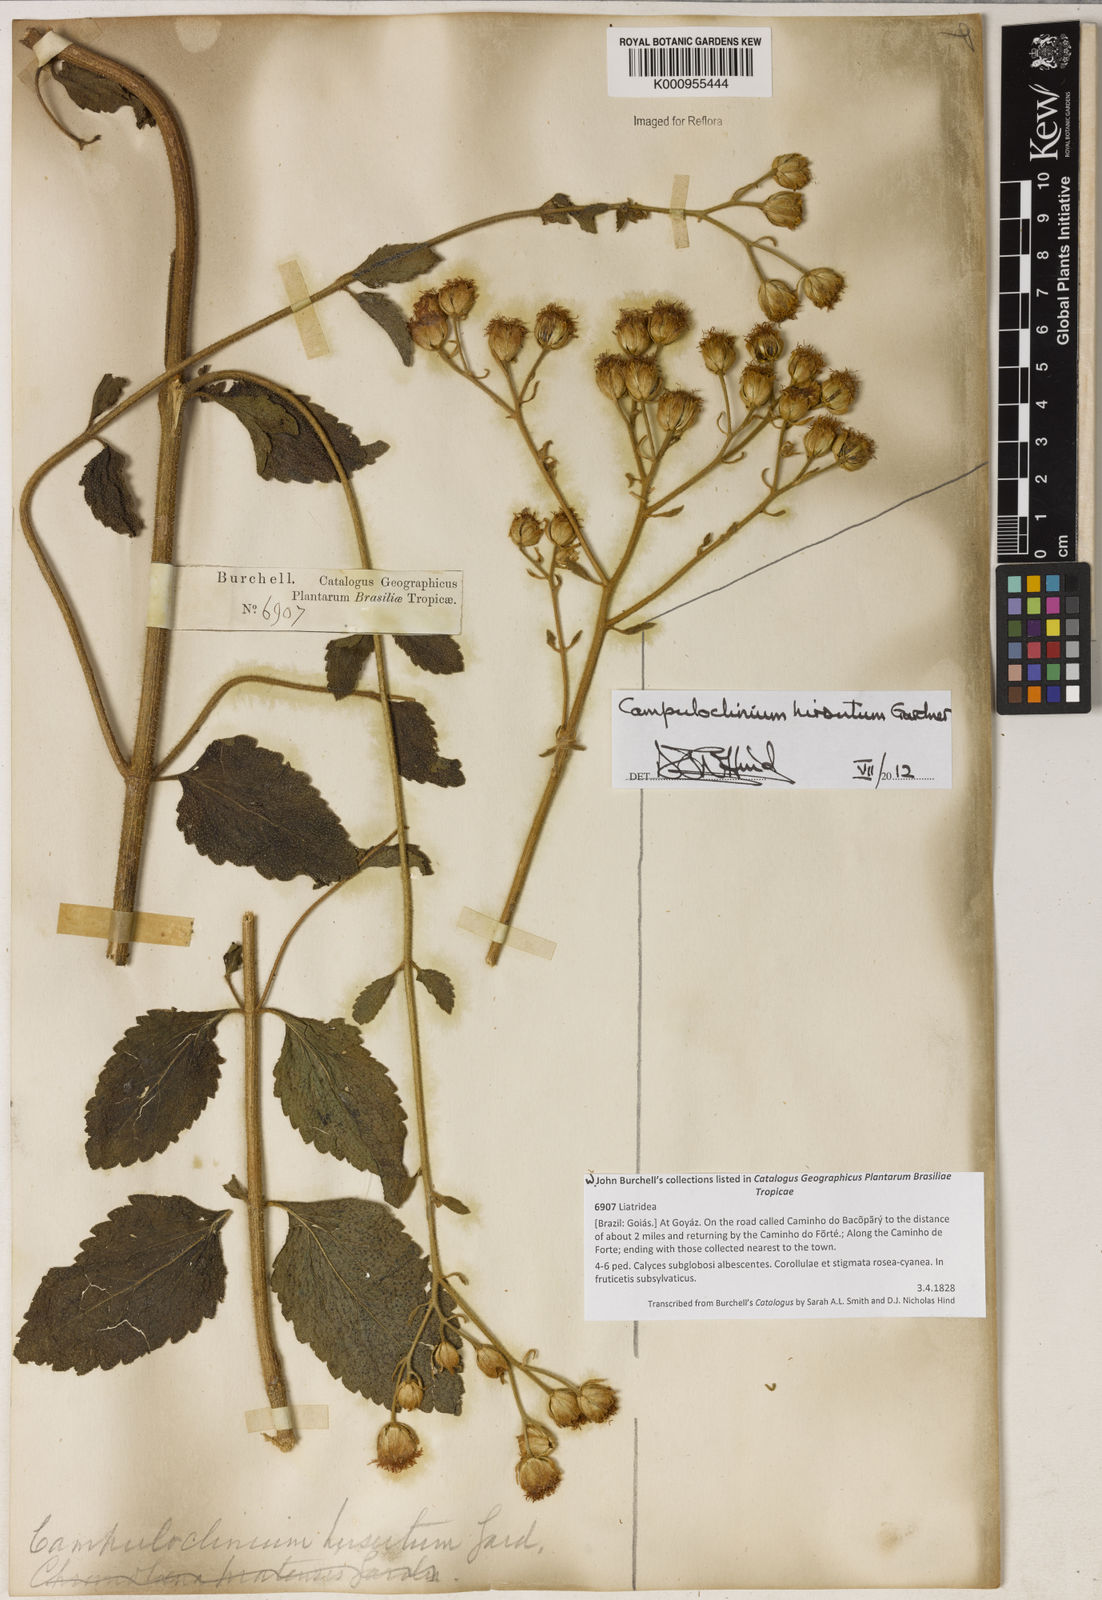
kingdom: Plantae
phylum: Tracheophyta
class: Magnoliopsida
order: Asterales
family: Asteraceae
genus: Campuloclinium
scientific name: Campuloclinium hirsutum
